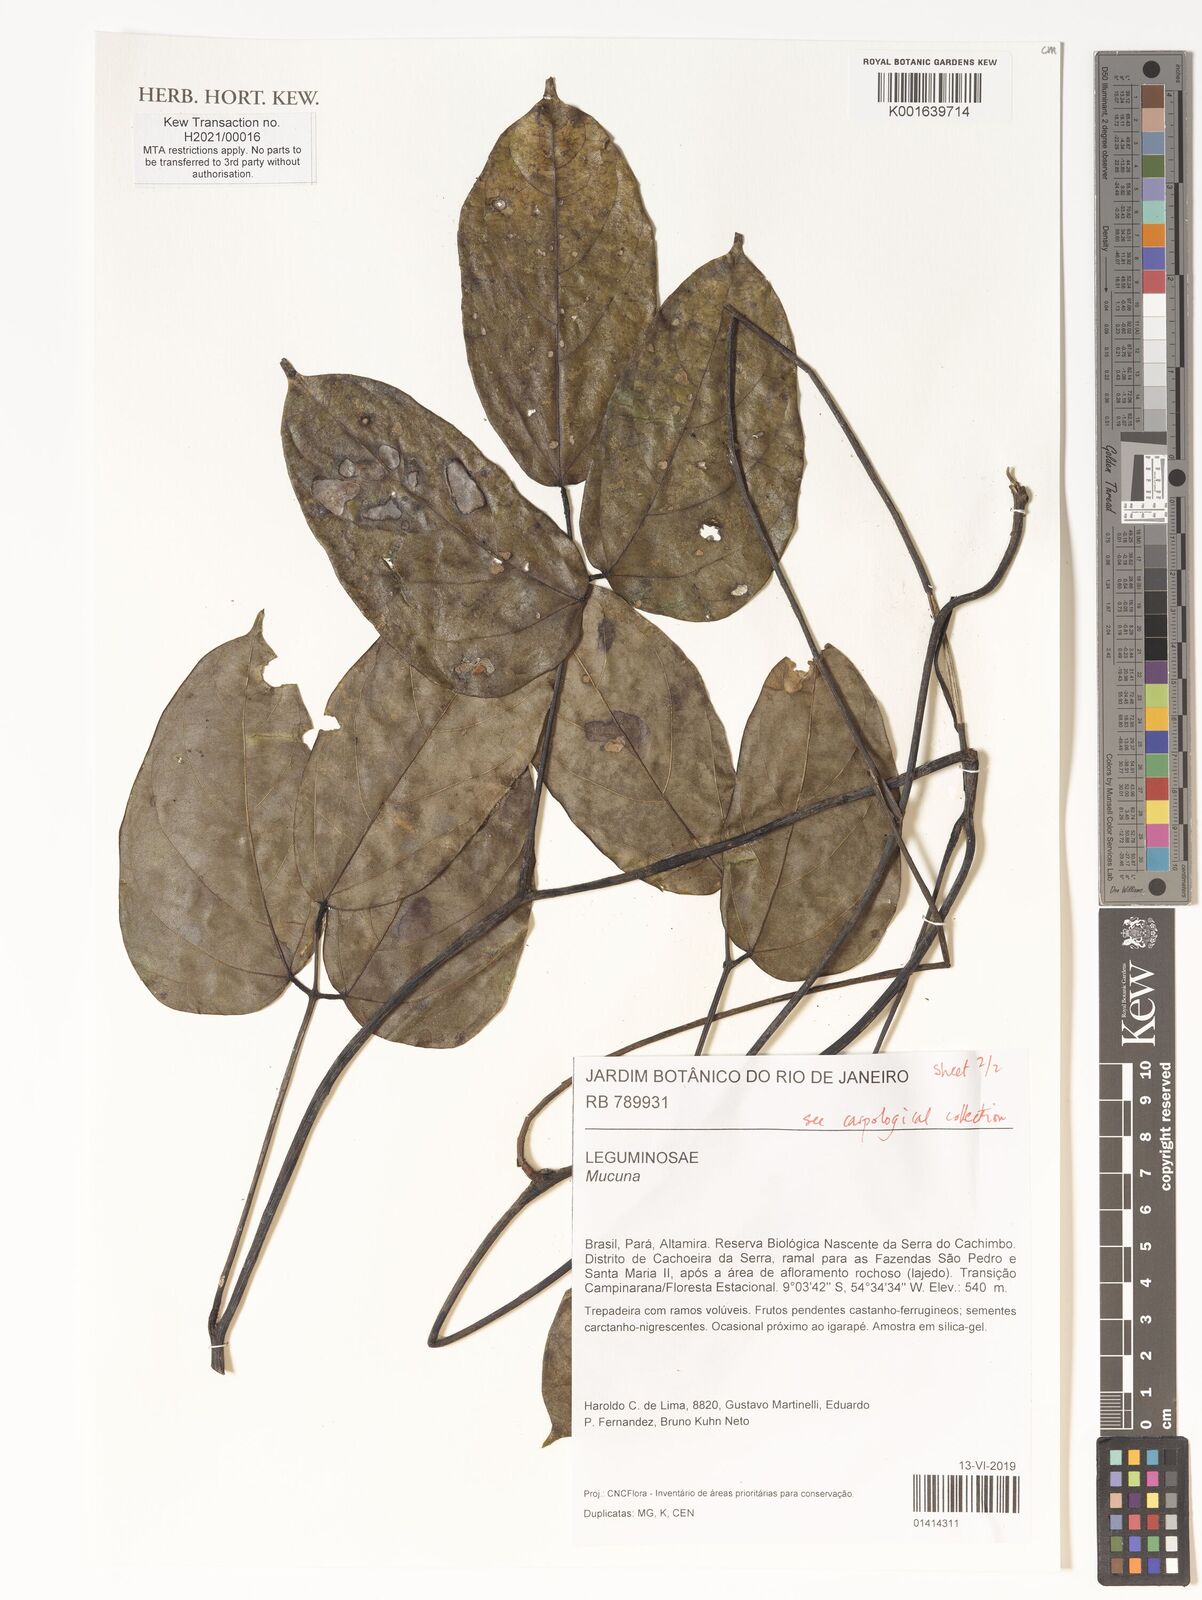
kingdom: Plantae
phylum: Tracheophyta
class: Magnoliopsida
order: Fabales
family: Fabaceae
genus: Mucuna
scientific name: Mucuna
